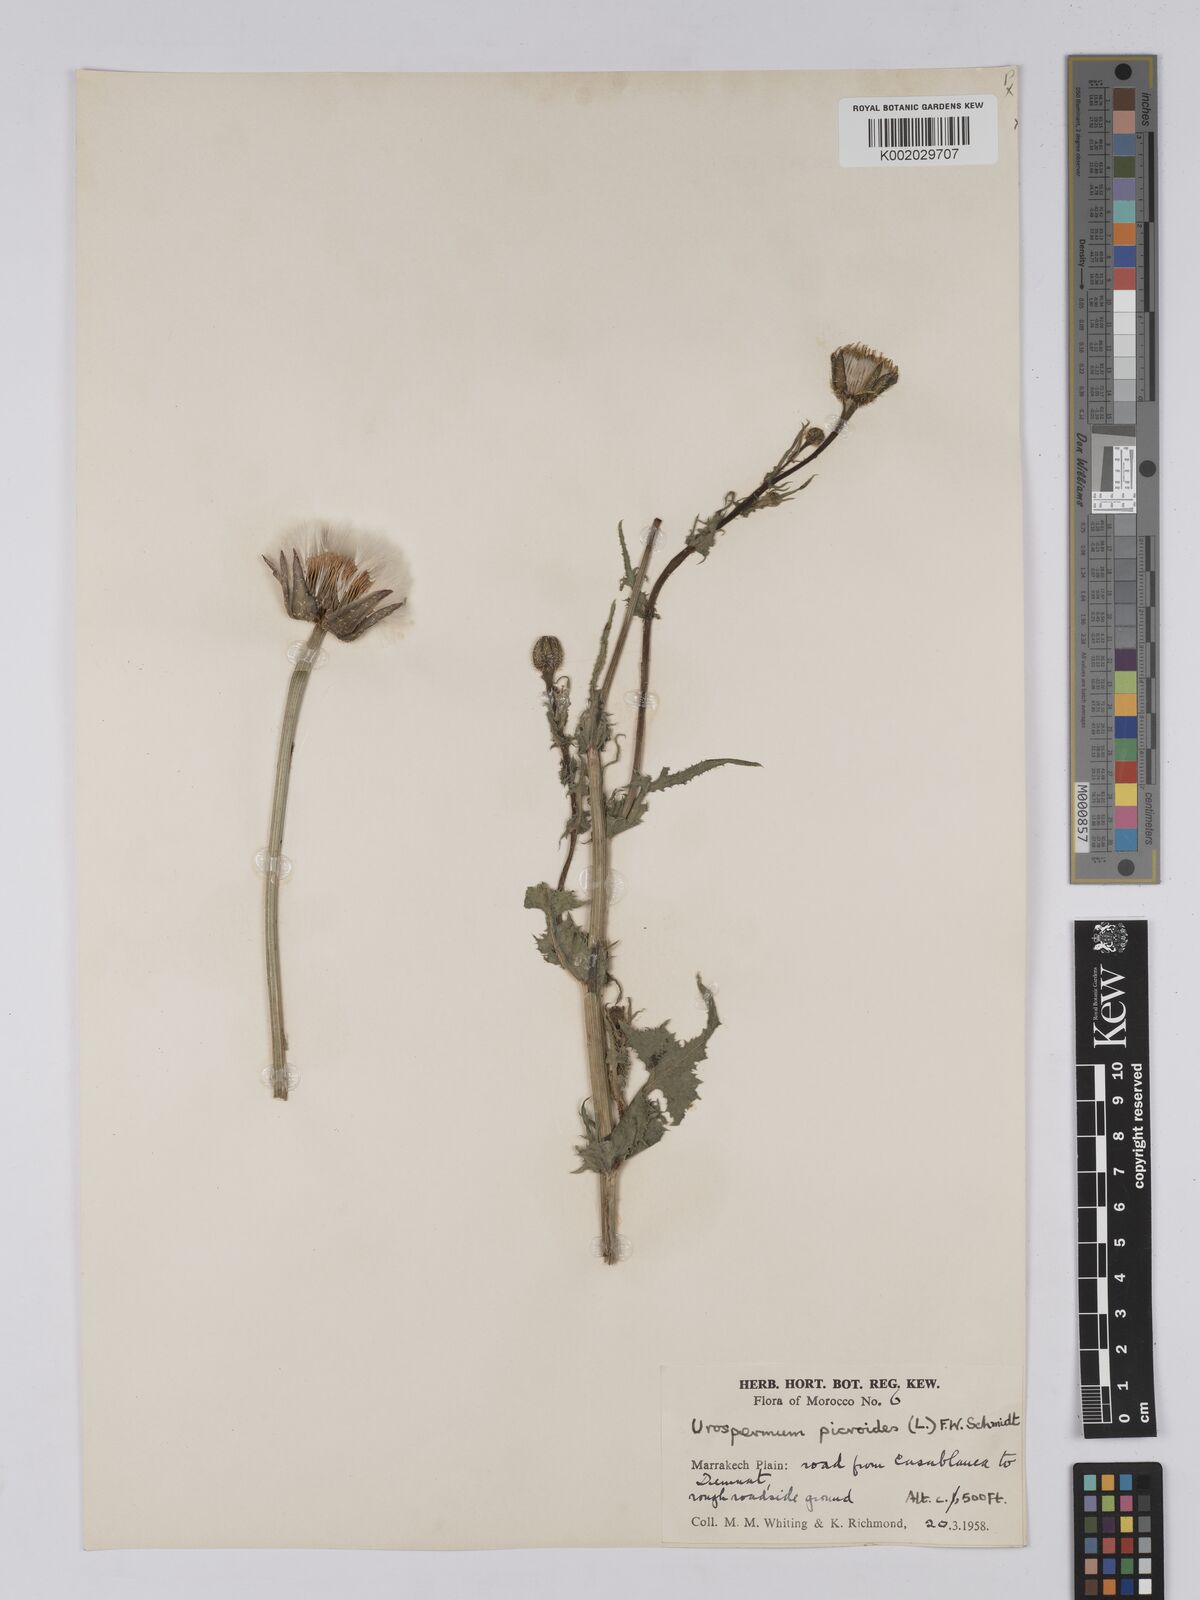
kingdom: Plantae
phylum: Tracheophyta
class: Magnoliopsida
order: Asterales
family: Asteraceae
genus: Urospermum
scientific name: Urospermum picroides
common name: False hawkbit
